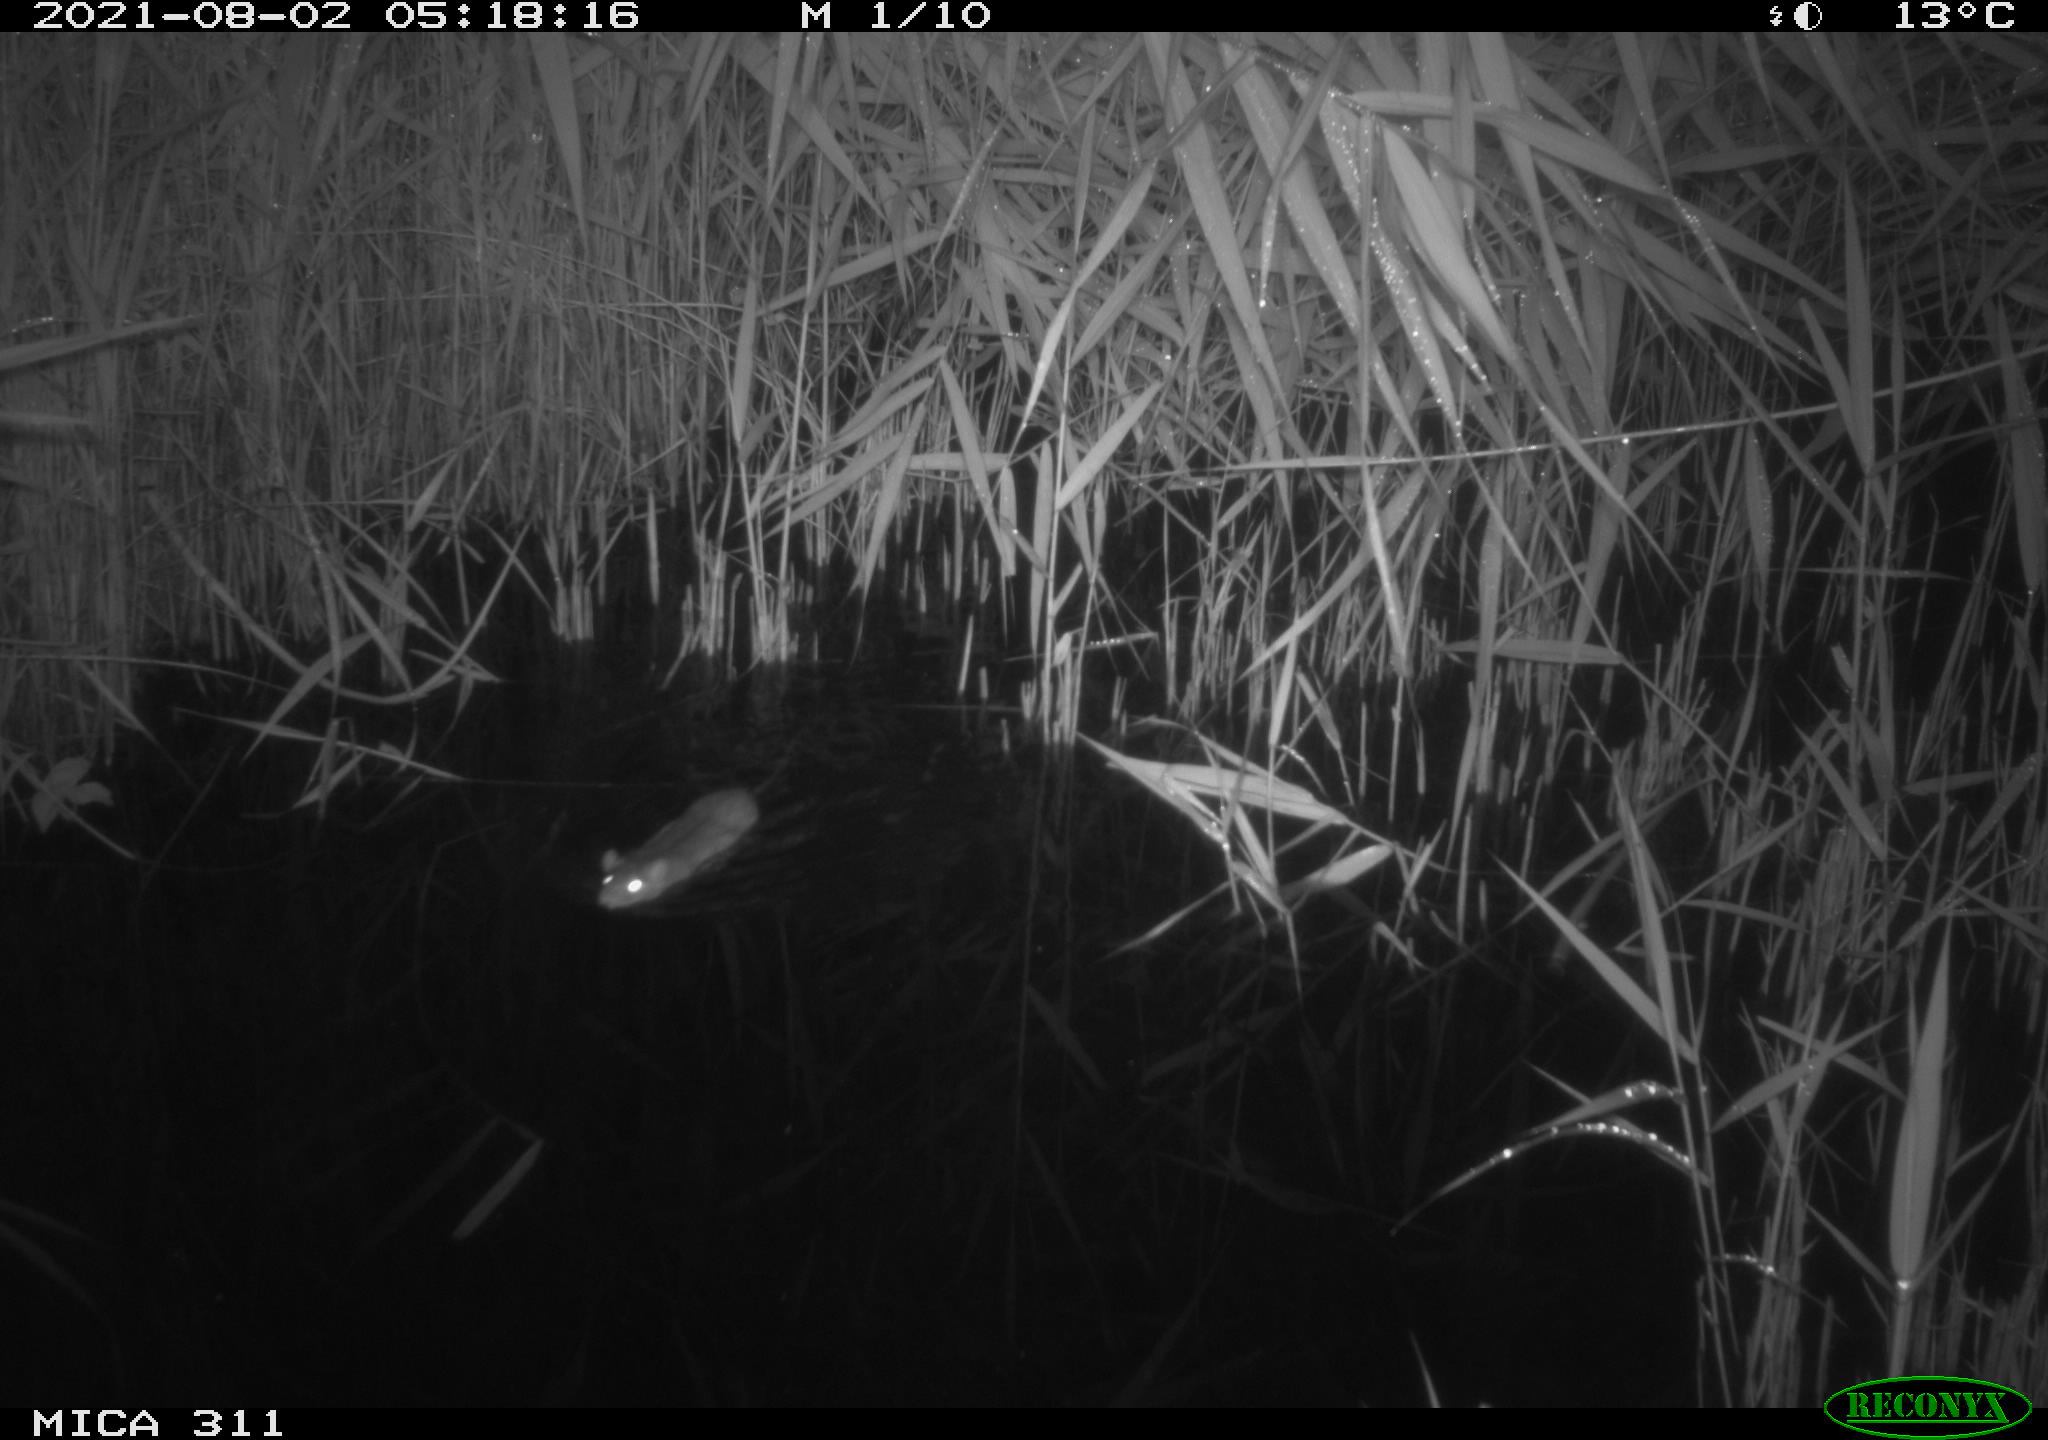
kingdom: Animalia
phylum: Chordata
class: Mammalia
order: Rodentia
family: Muridae
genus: Rattus
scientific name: Rattus norvegicus
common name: Brown rat
